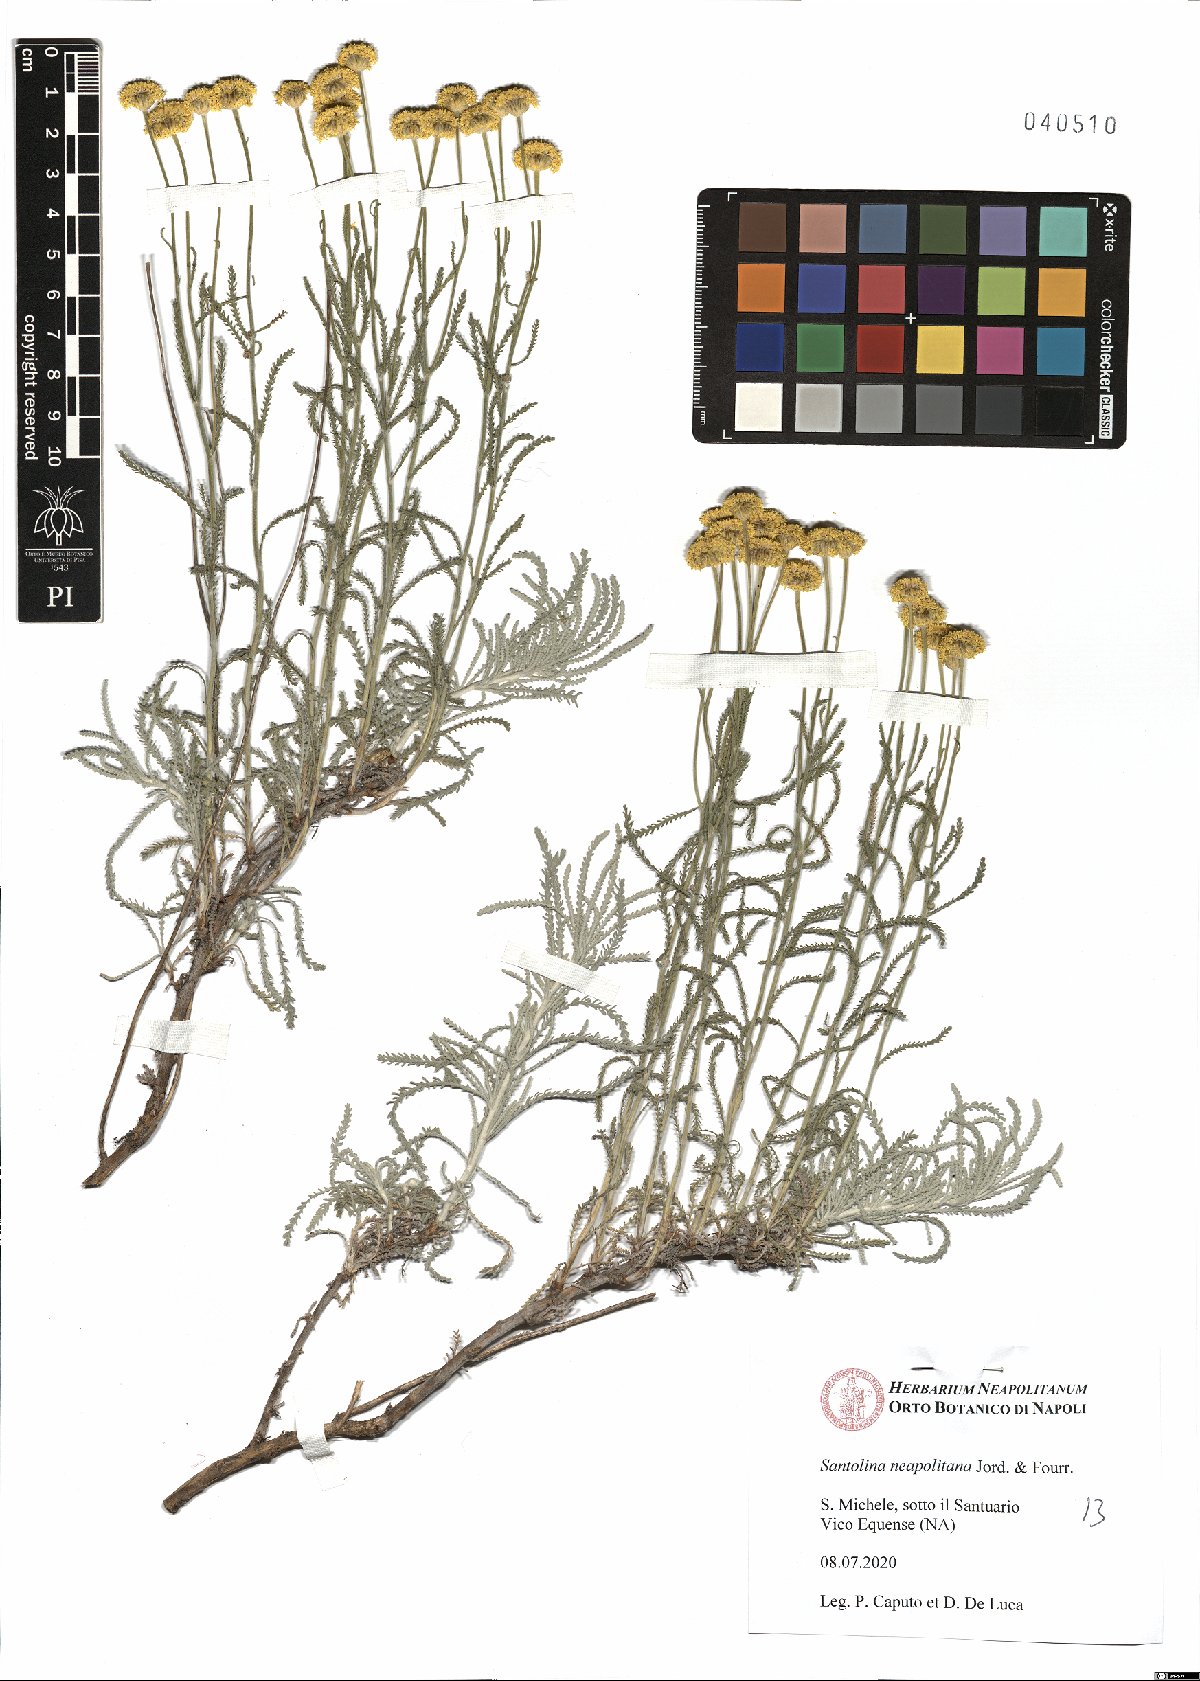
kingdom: Plantae
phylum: Tracheophyta
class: Magnoliopsida
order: Asterales
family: Asteraceae
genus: Santolina
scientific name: Santolina neapolitana
